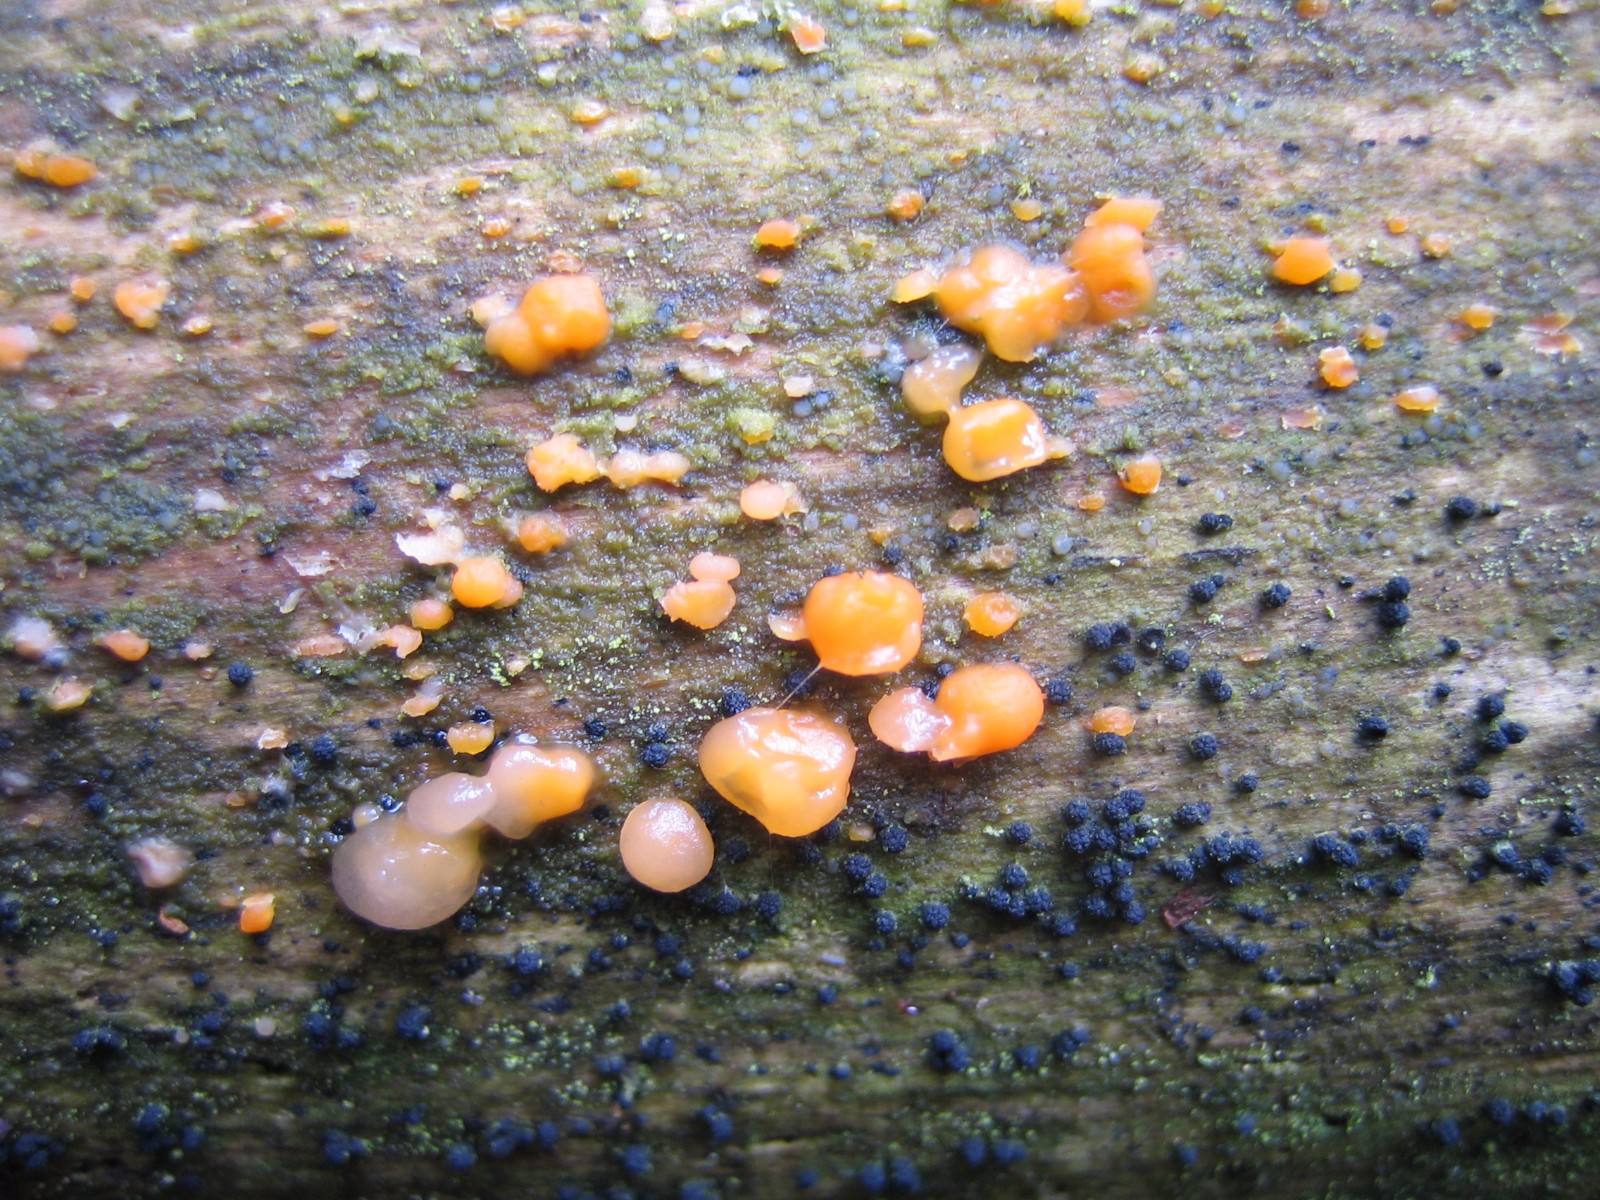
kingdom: Fungi
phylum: Basidiomycota
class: Dacrymycetes
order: Dacrymycetales
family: Dacrymycetaceae
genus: Dacrymyces
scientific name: Dacrymyces stillatus
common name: almindelig tåresvamp
